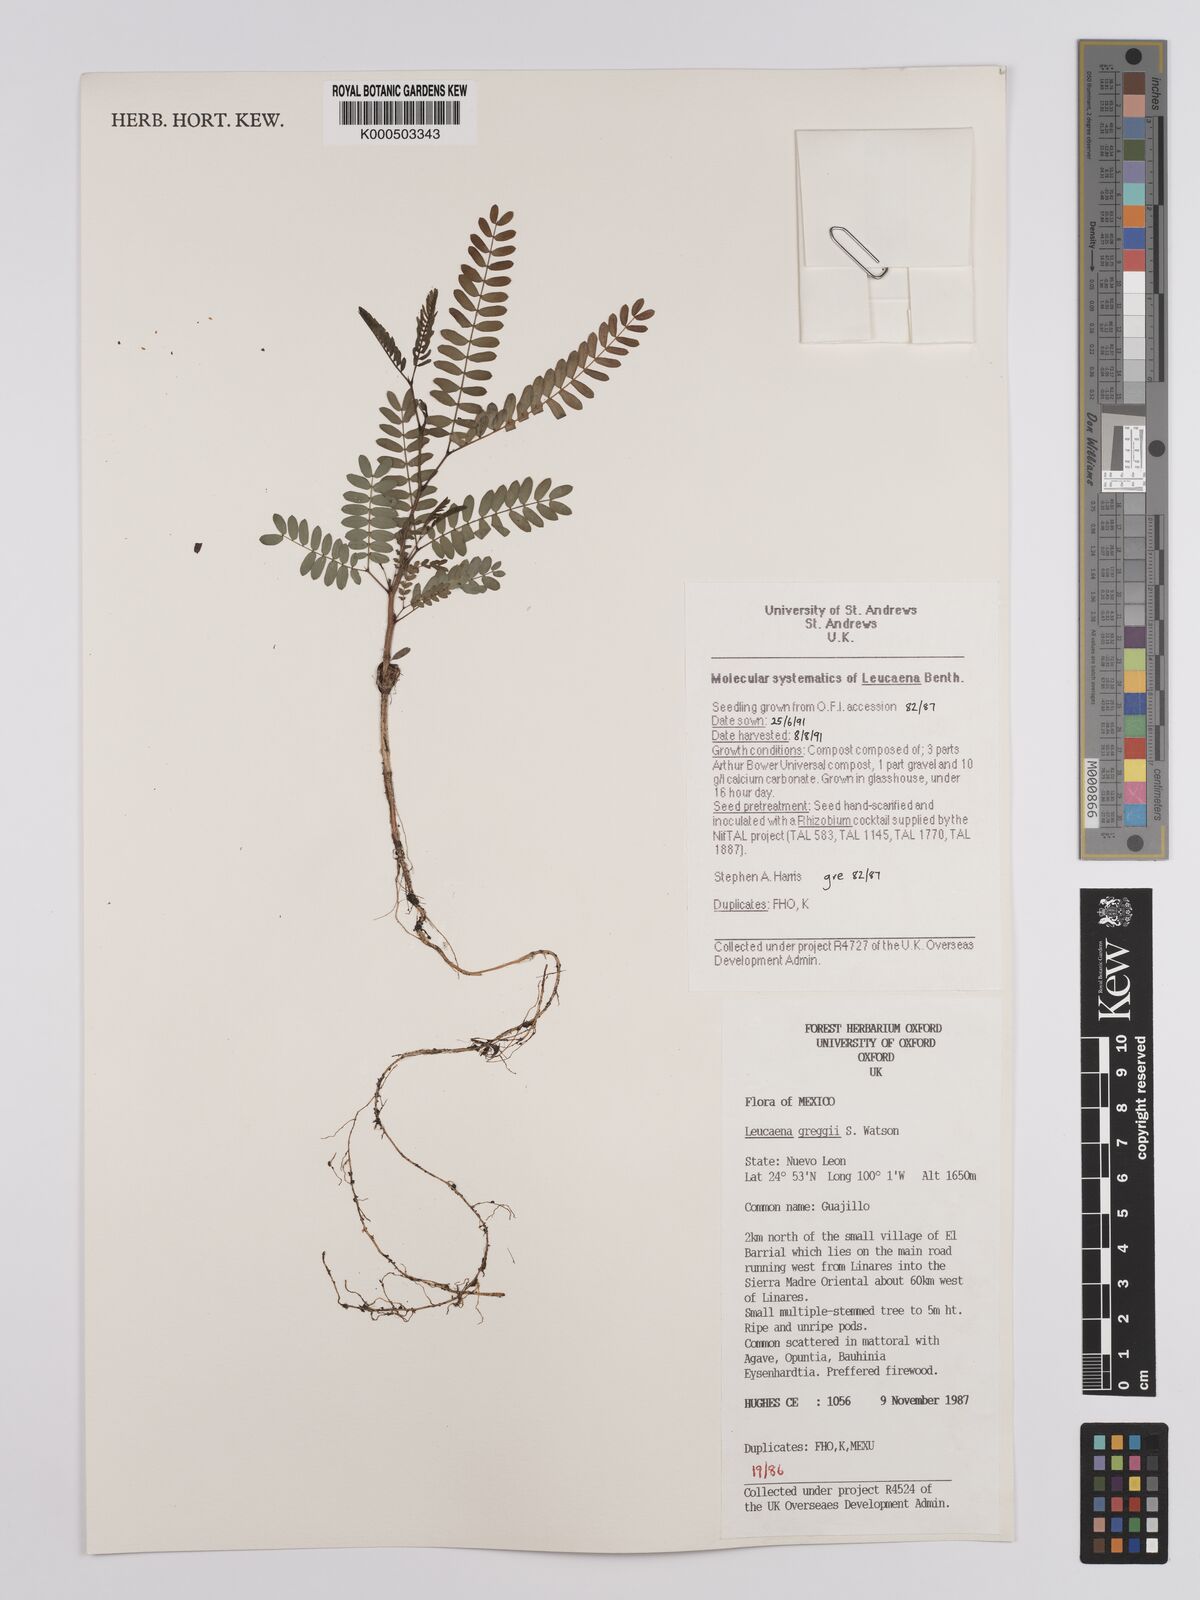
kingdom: Plantae
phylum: Tracheophyta
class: Magnoliopsida
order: Fabales
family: Fabaceae
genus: Leucaena
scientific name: Leucaena greggii
